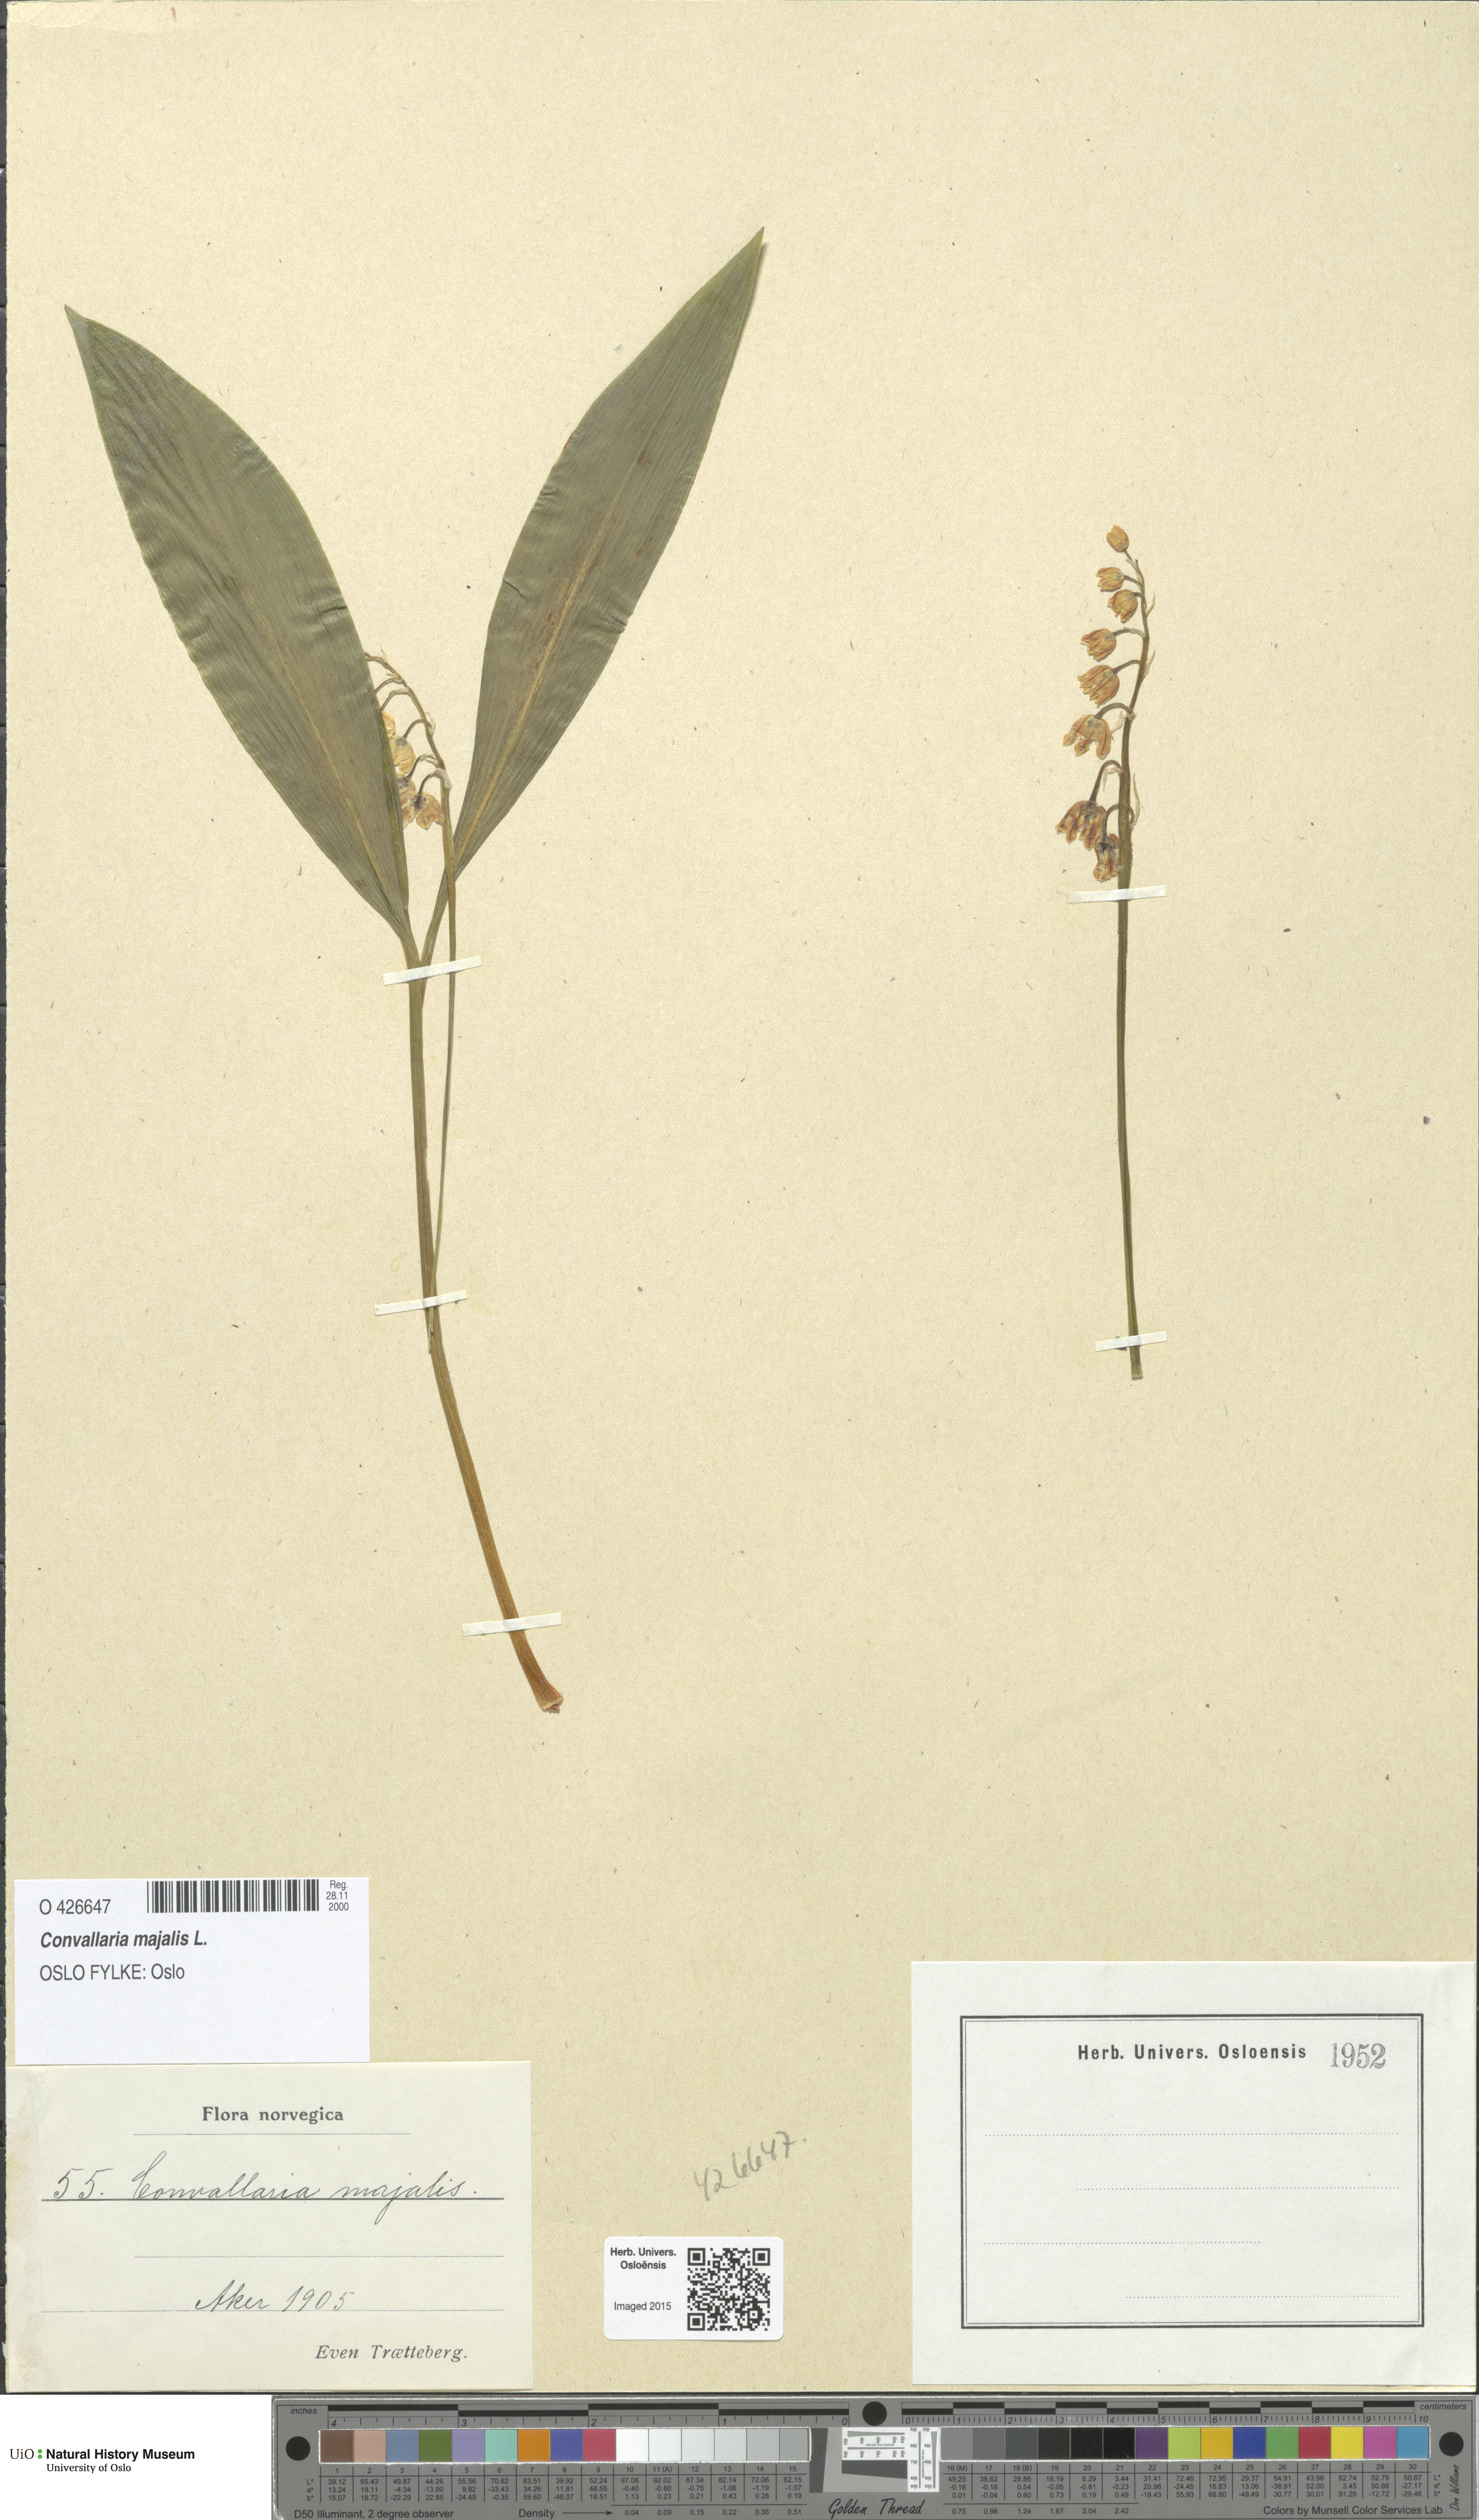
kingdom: Plantae
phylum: Tracheophyta
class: Liliopsida
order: Asparagales
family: Asparagaceae
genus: Convallaria
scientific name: Convallaria majalis
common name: Lily-of-the-valley
